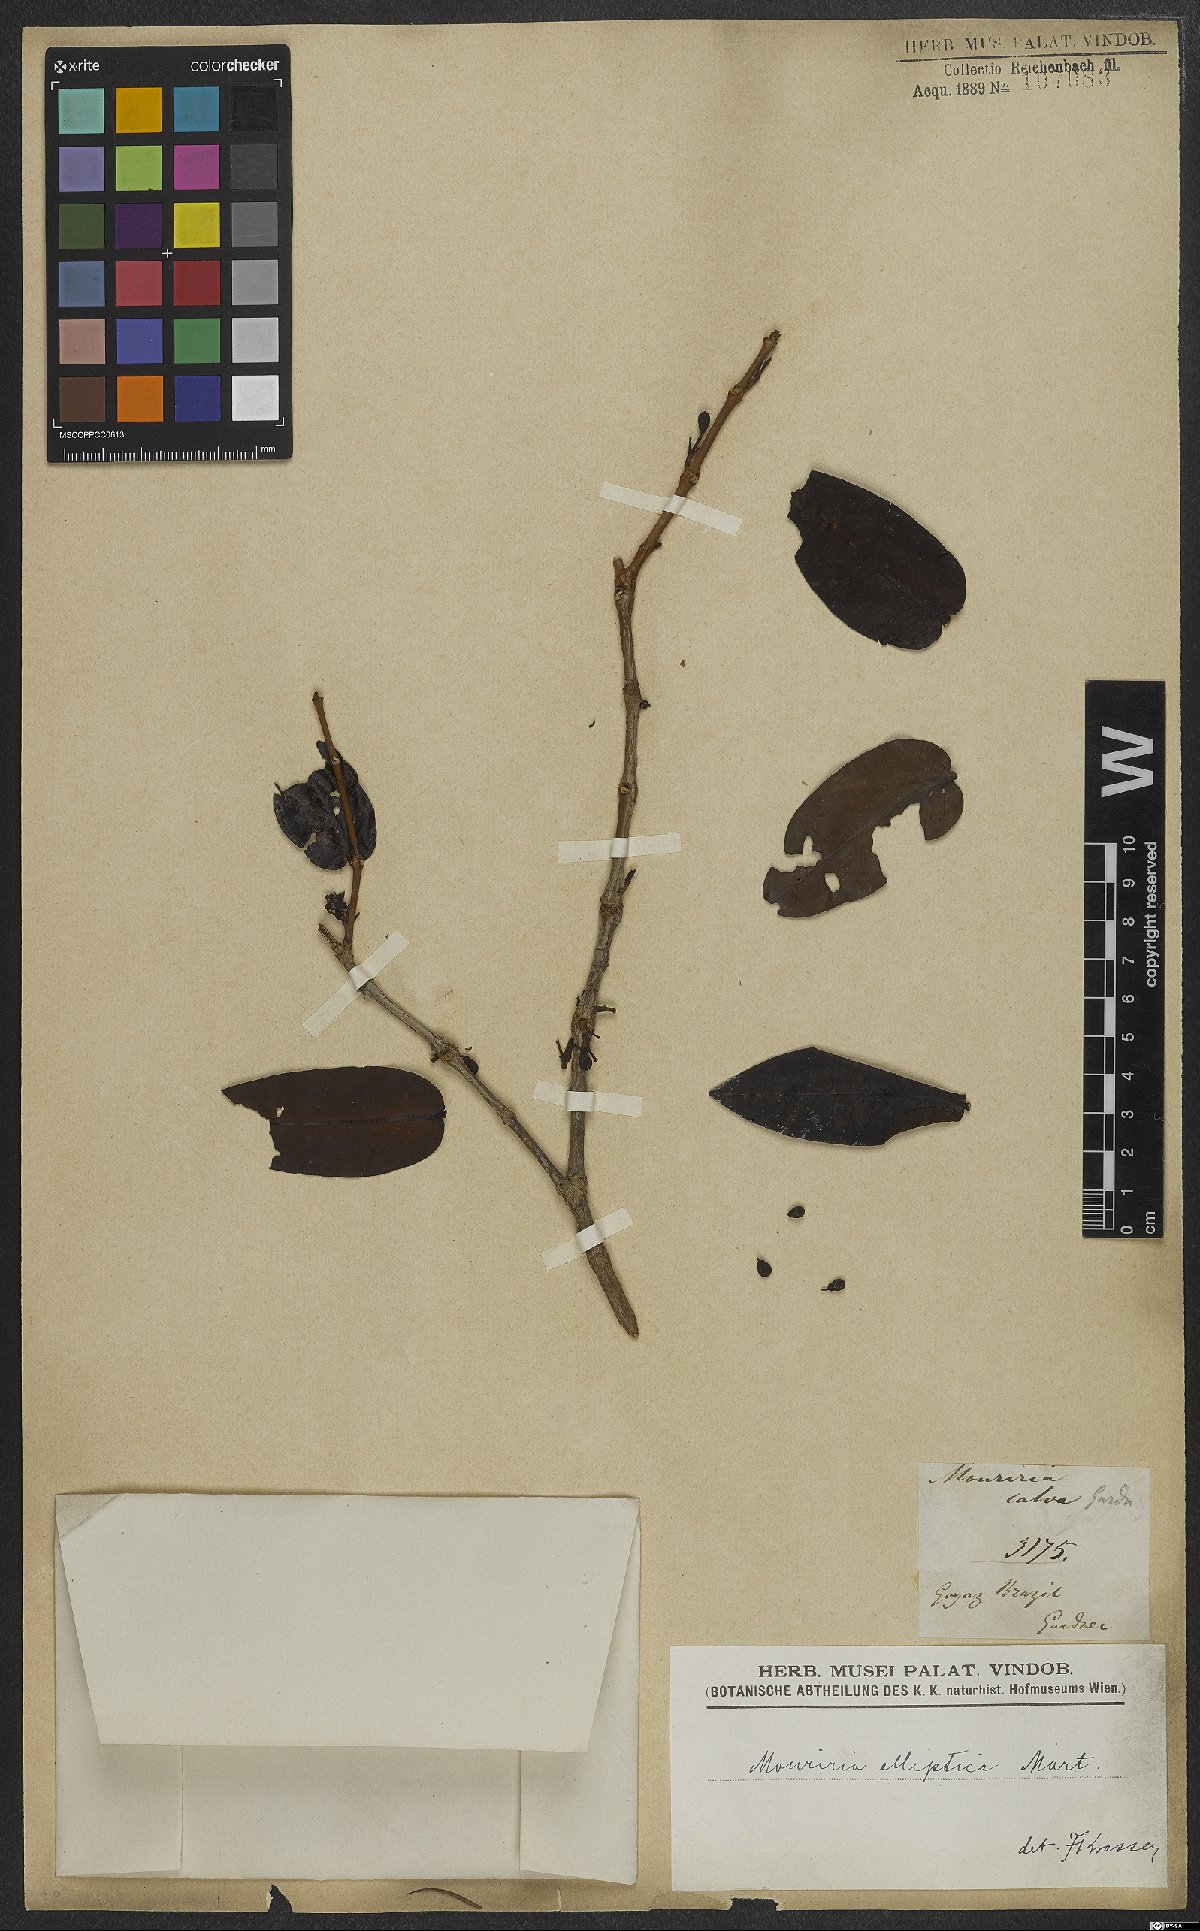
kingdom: Plantae
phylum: Tracheophyta
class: Magnoliopsida
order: Myrtales
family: Melastomataceae
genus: Mouriri
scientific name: Mouriri elliptica
